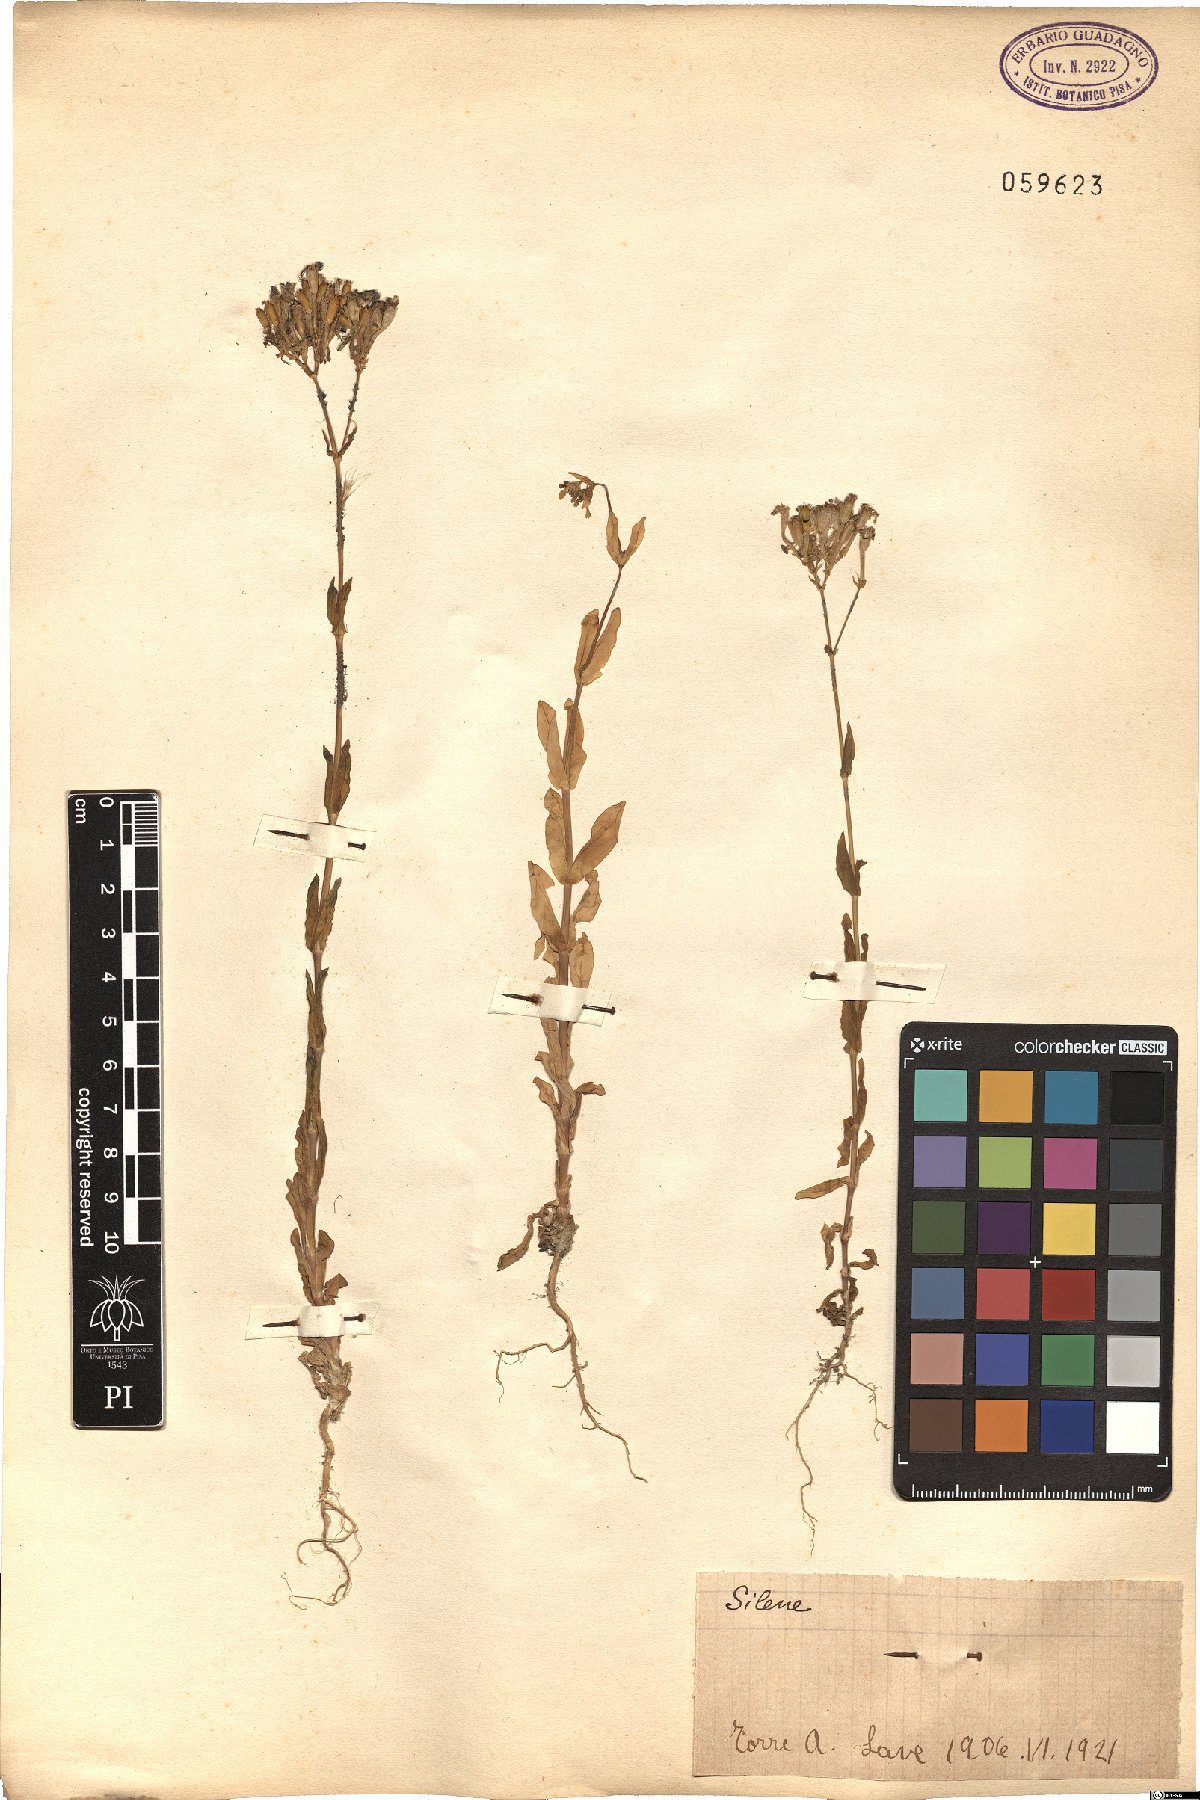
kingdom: Plantae
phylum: Tracheophyta
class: Magnoliopsida
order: Caryophyllales
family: Caryophyllaceae
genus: Silene
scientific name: Silene
